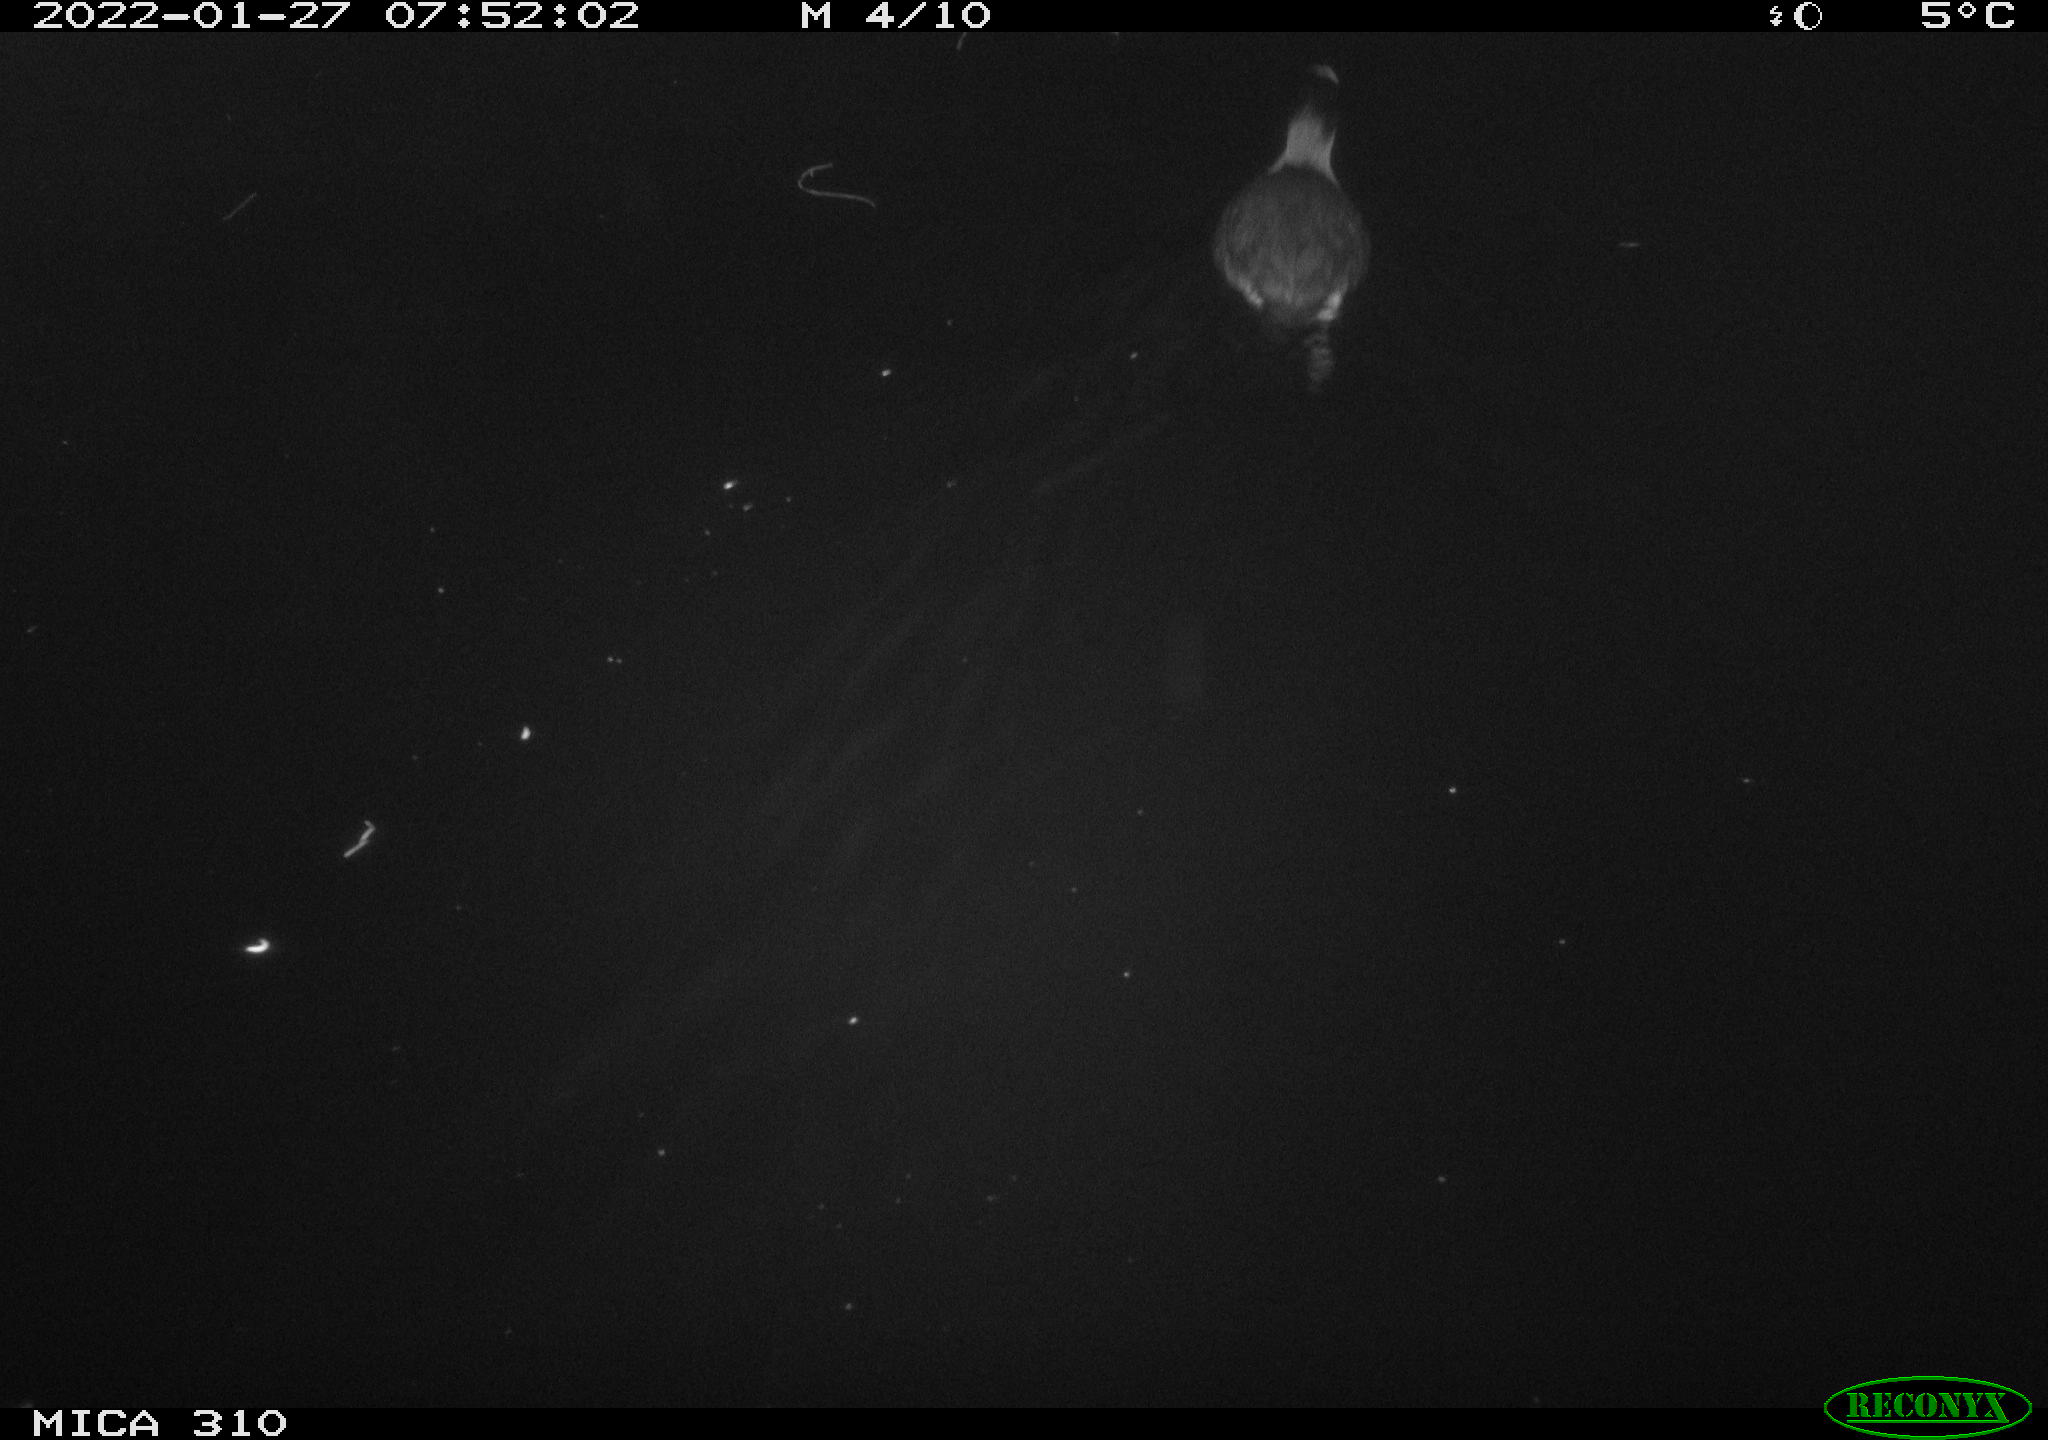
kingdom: Animalia
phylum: Chordata
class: Aves
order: Gruiformes
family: Rallidae
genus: Fulica
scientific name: Fulica atra
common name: Eurasian coot
